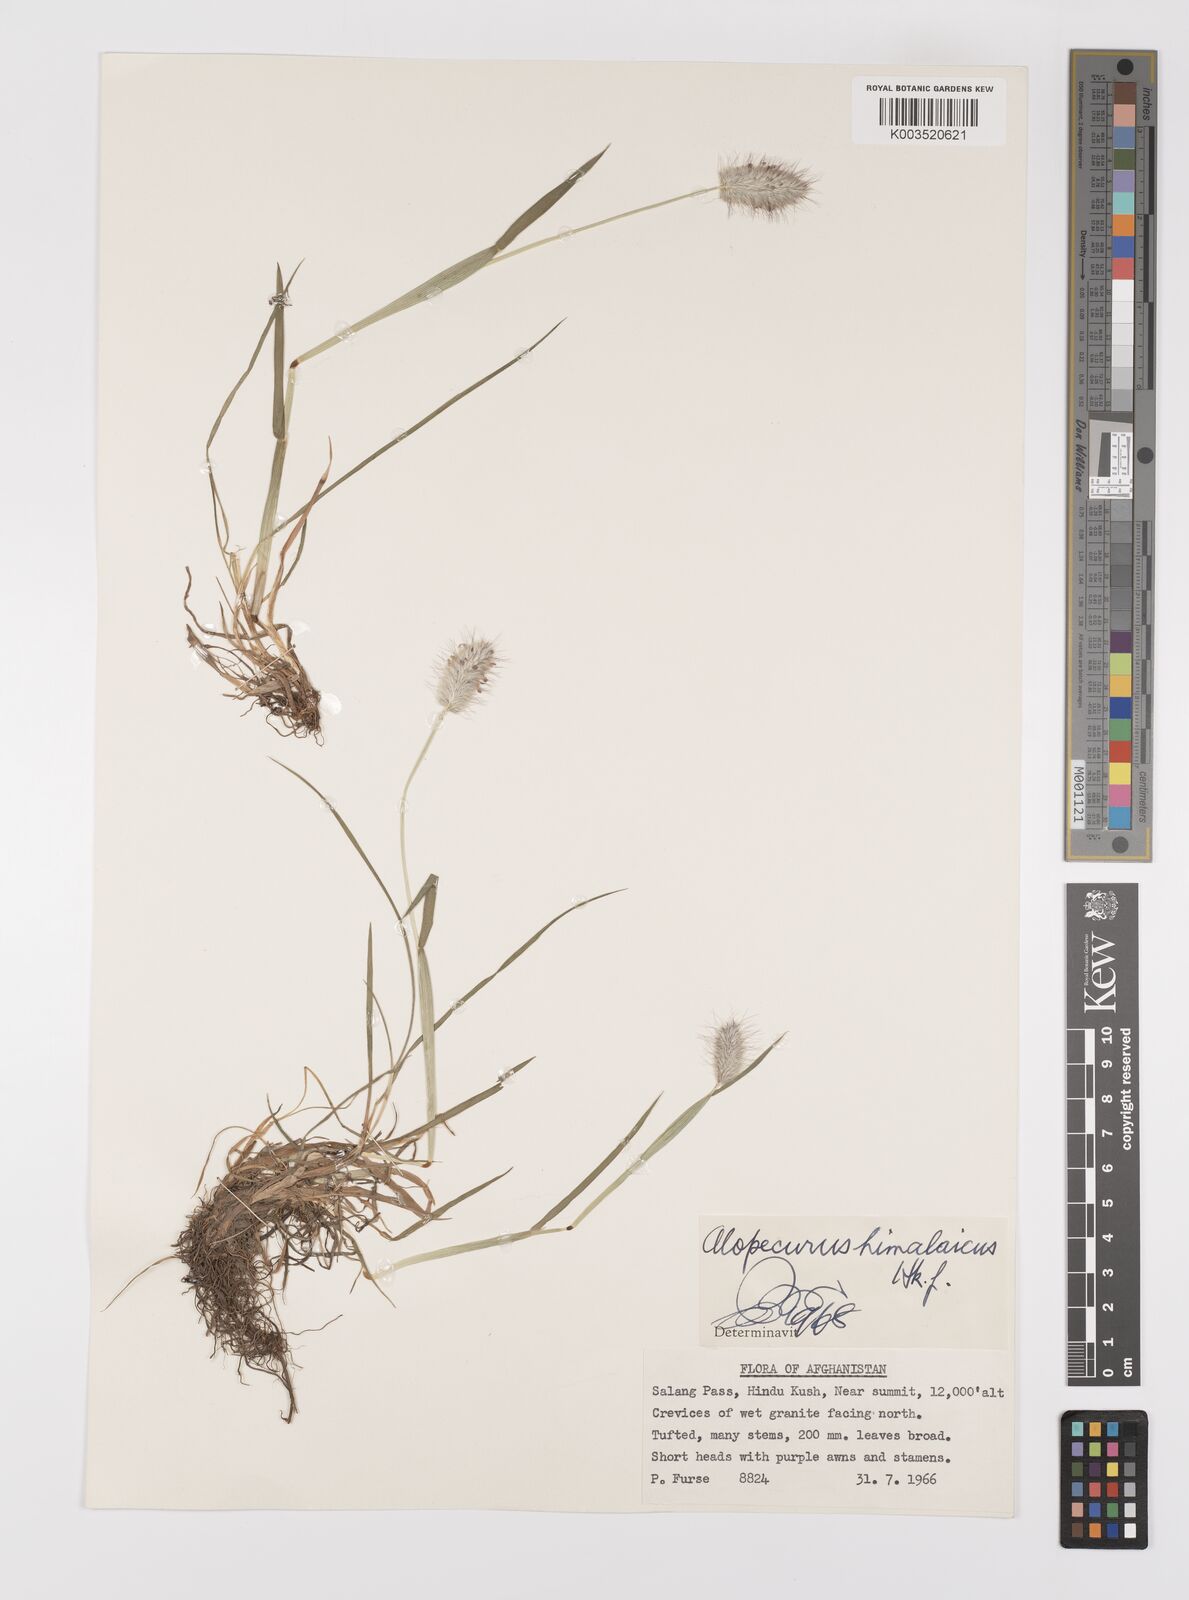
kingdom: Plantae
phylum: Tracheophyta
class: Liliopsida
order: Poales
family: Poaceae
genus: Alopecurus
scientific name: Alopecurus himalaicus
